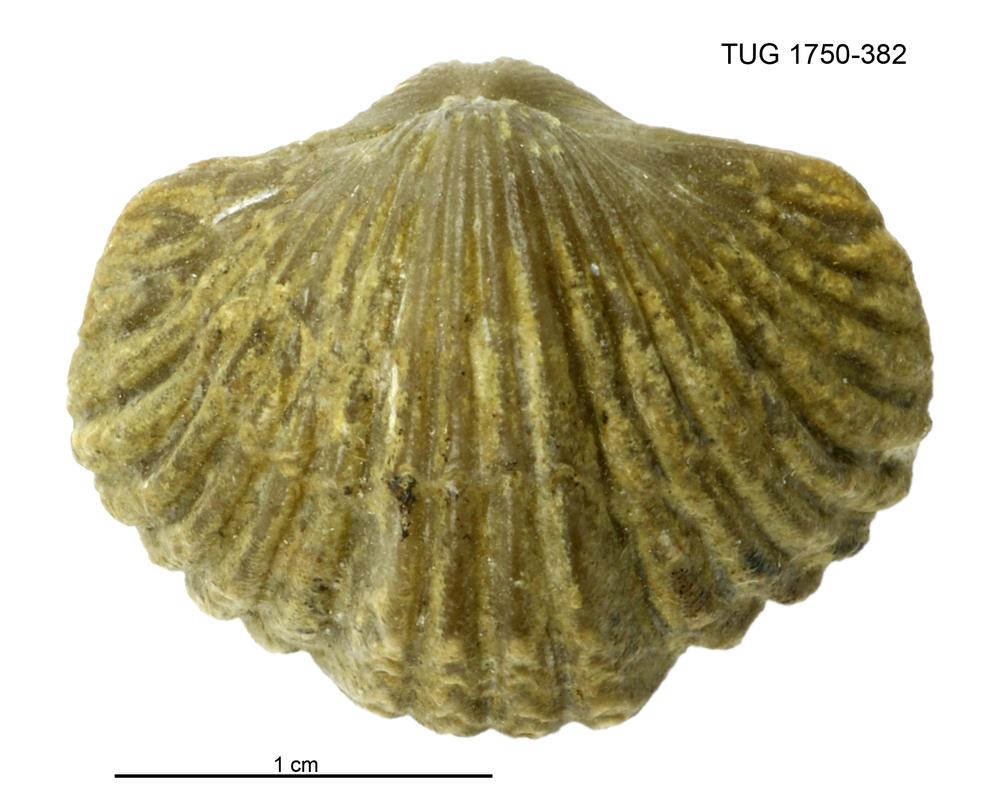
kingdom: Animalia
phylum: Brachiopoda
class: Rhynchonellata
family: Platystrophiidae
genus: Neoplatystrophia
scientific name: Neoplatystrophia lutkevichi
